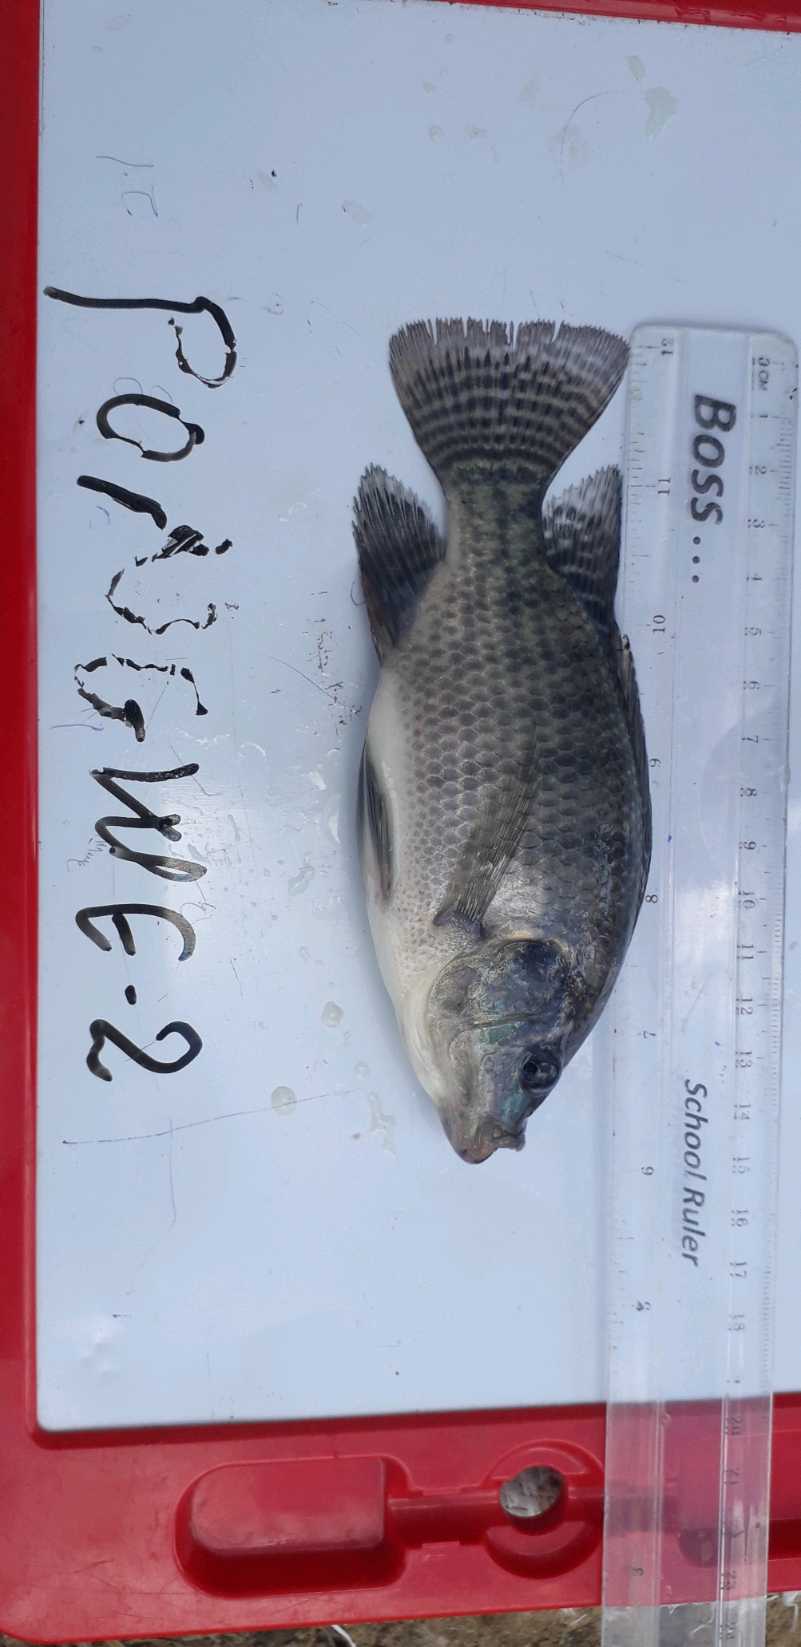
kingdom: Animalia
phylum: Chordata
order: Perciformes
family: Cichlidae
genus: Oreochromis
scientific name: Oreochromis niloticus
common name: Nile tilapia
